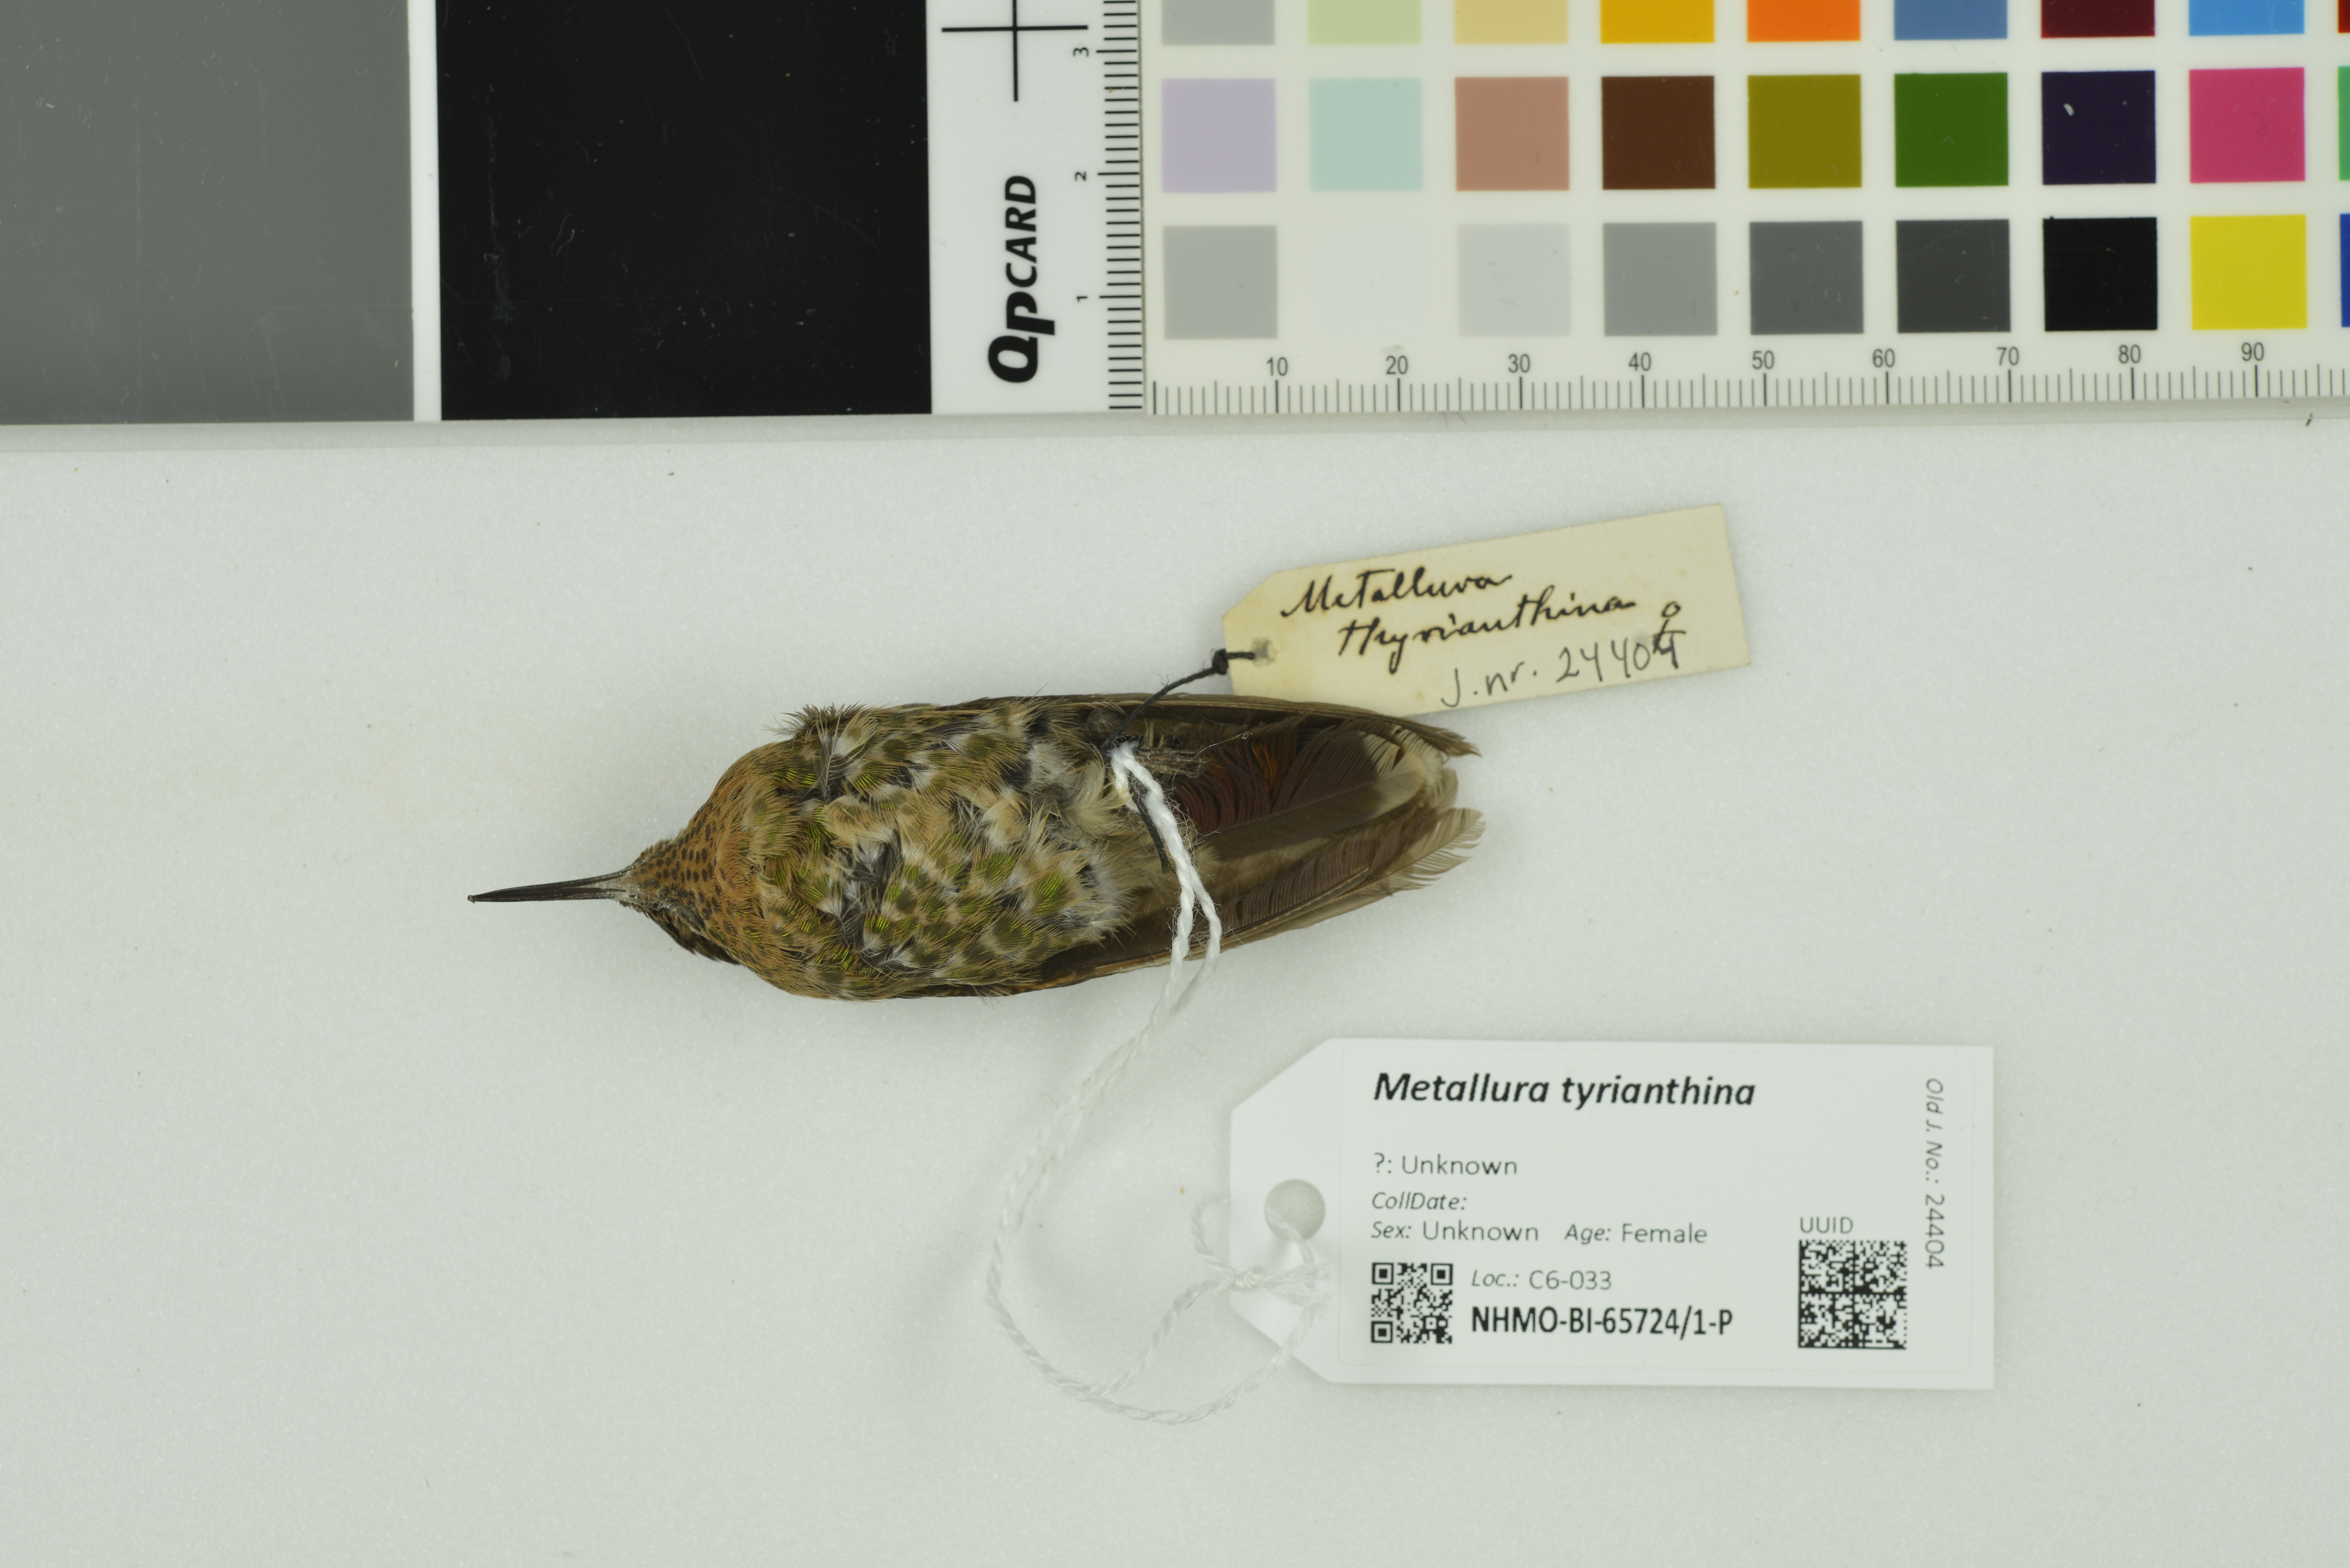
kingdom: Animalia
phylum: Chordata
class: Aves
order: Apodiformes
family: Trochilidae
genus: Metallura
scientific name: Metallura tyrianthina
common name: Tyrian metaltail
